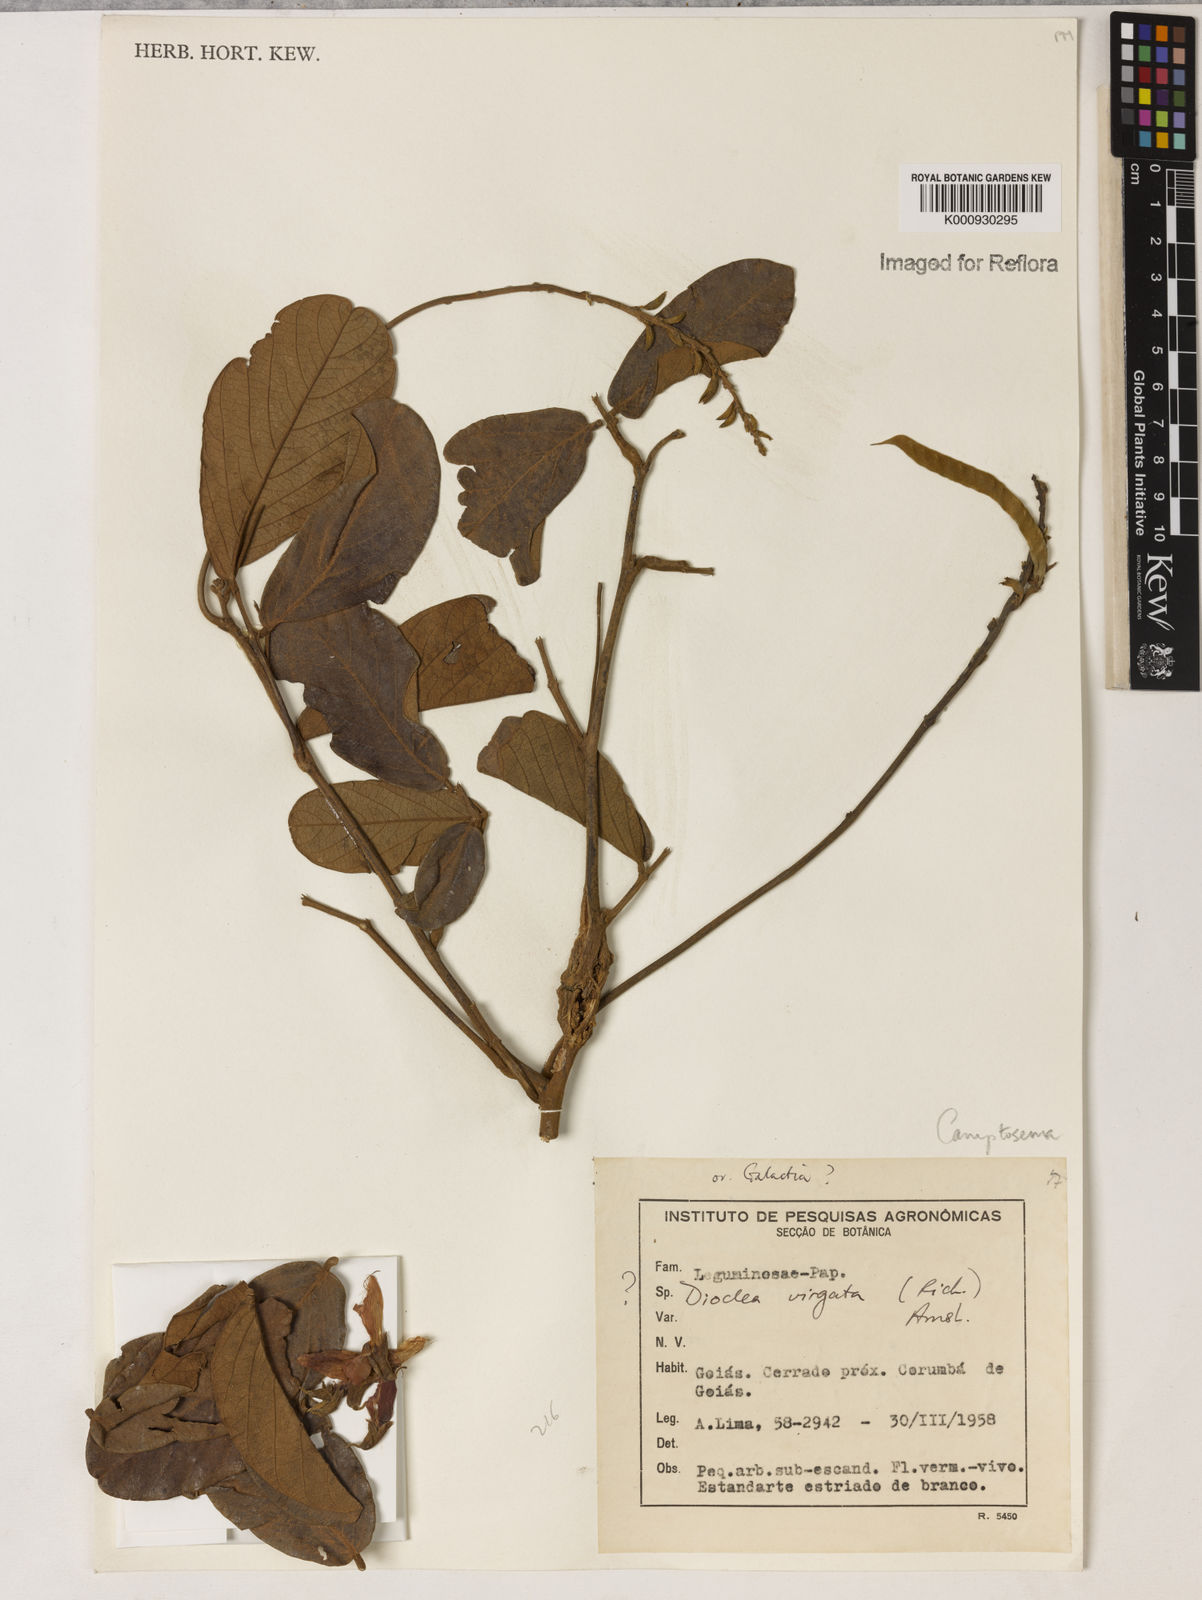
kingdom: Plantae
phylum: Tracheophyta
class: Magnoliopsida
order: Fabales
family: Fabaceae
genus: Camptosema
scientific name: Camptosema
